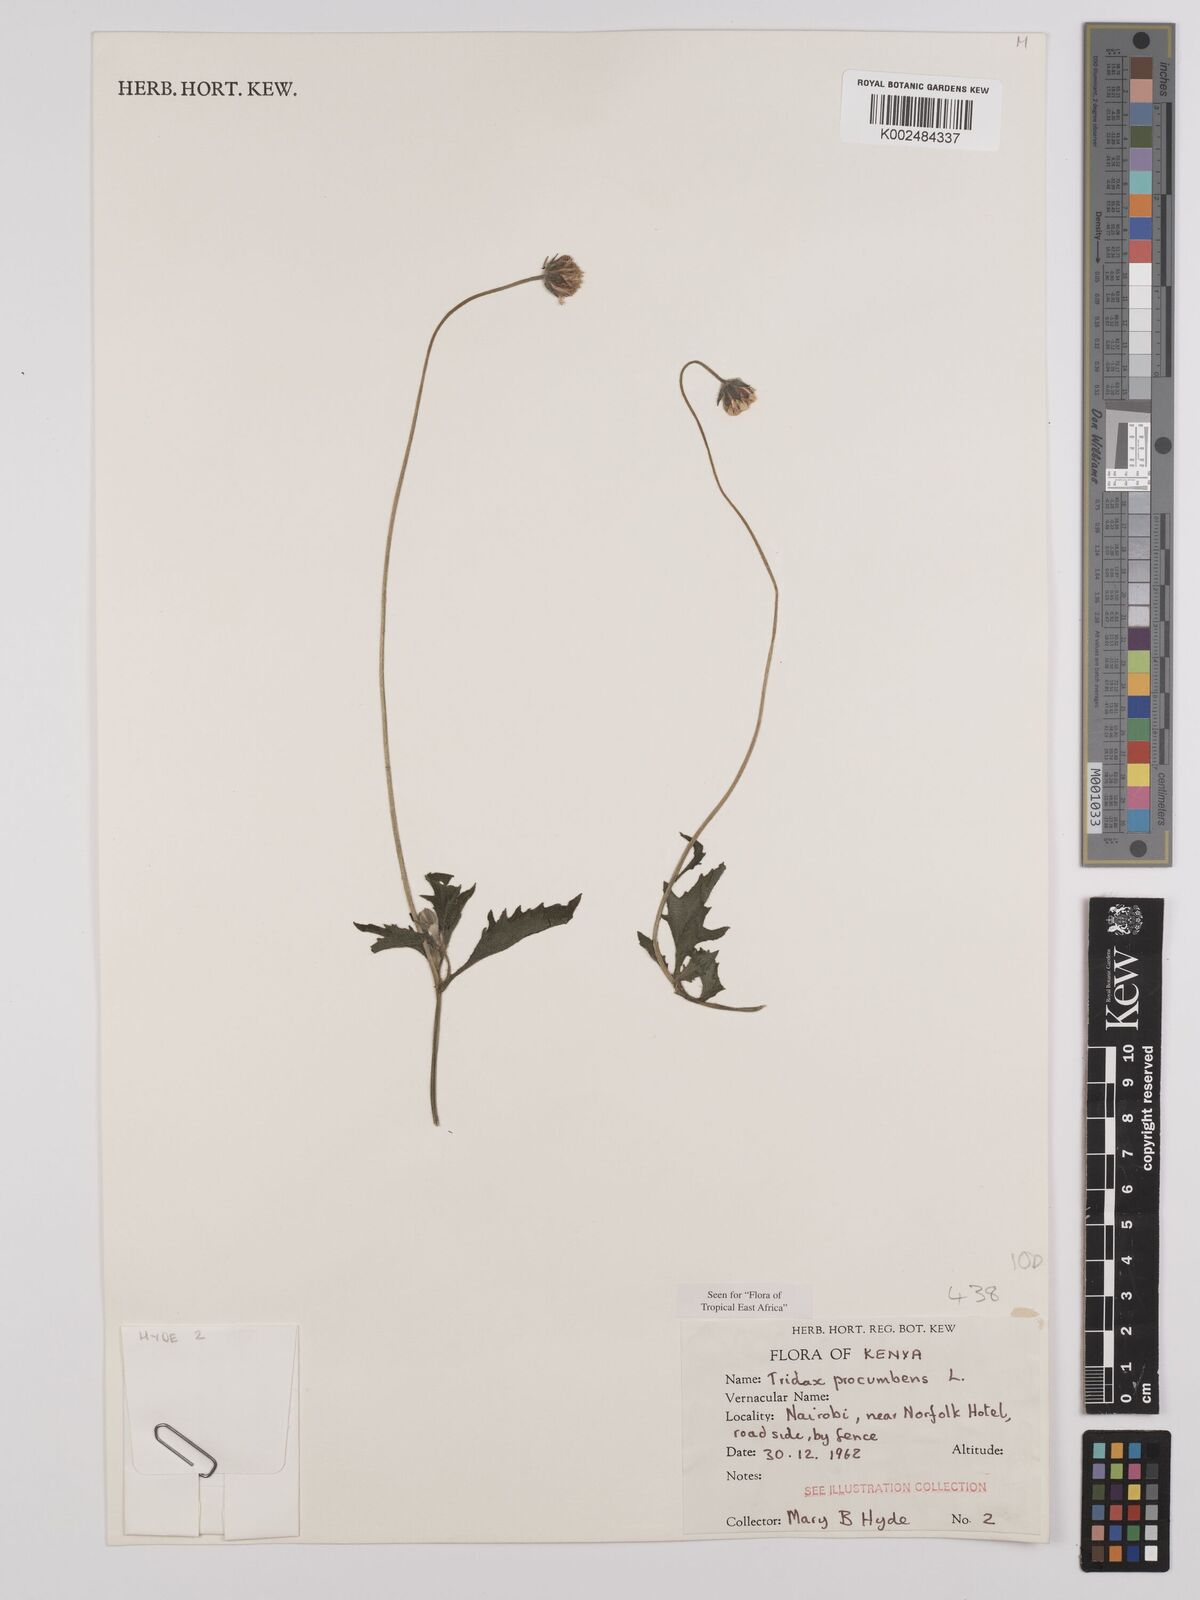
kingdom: Plantae
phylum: Tracheophyta
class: Magnoliopsida
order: Asterales
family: Asteraceae
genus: Tridax
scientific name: Tridax procumbens
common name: Coatbuttons
